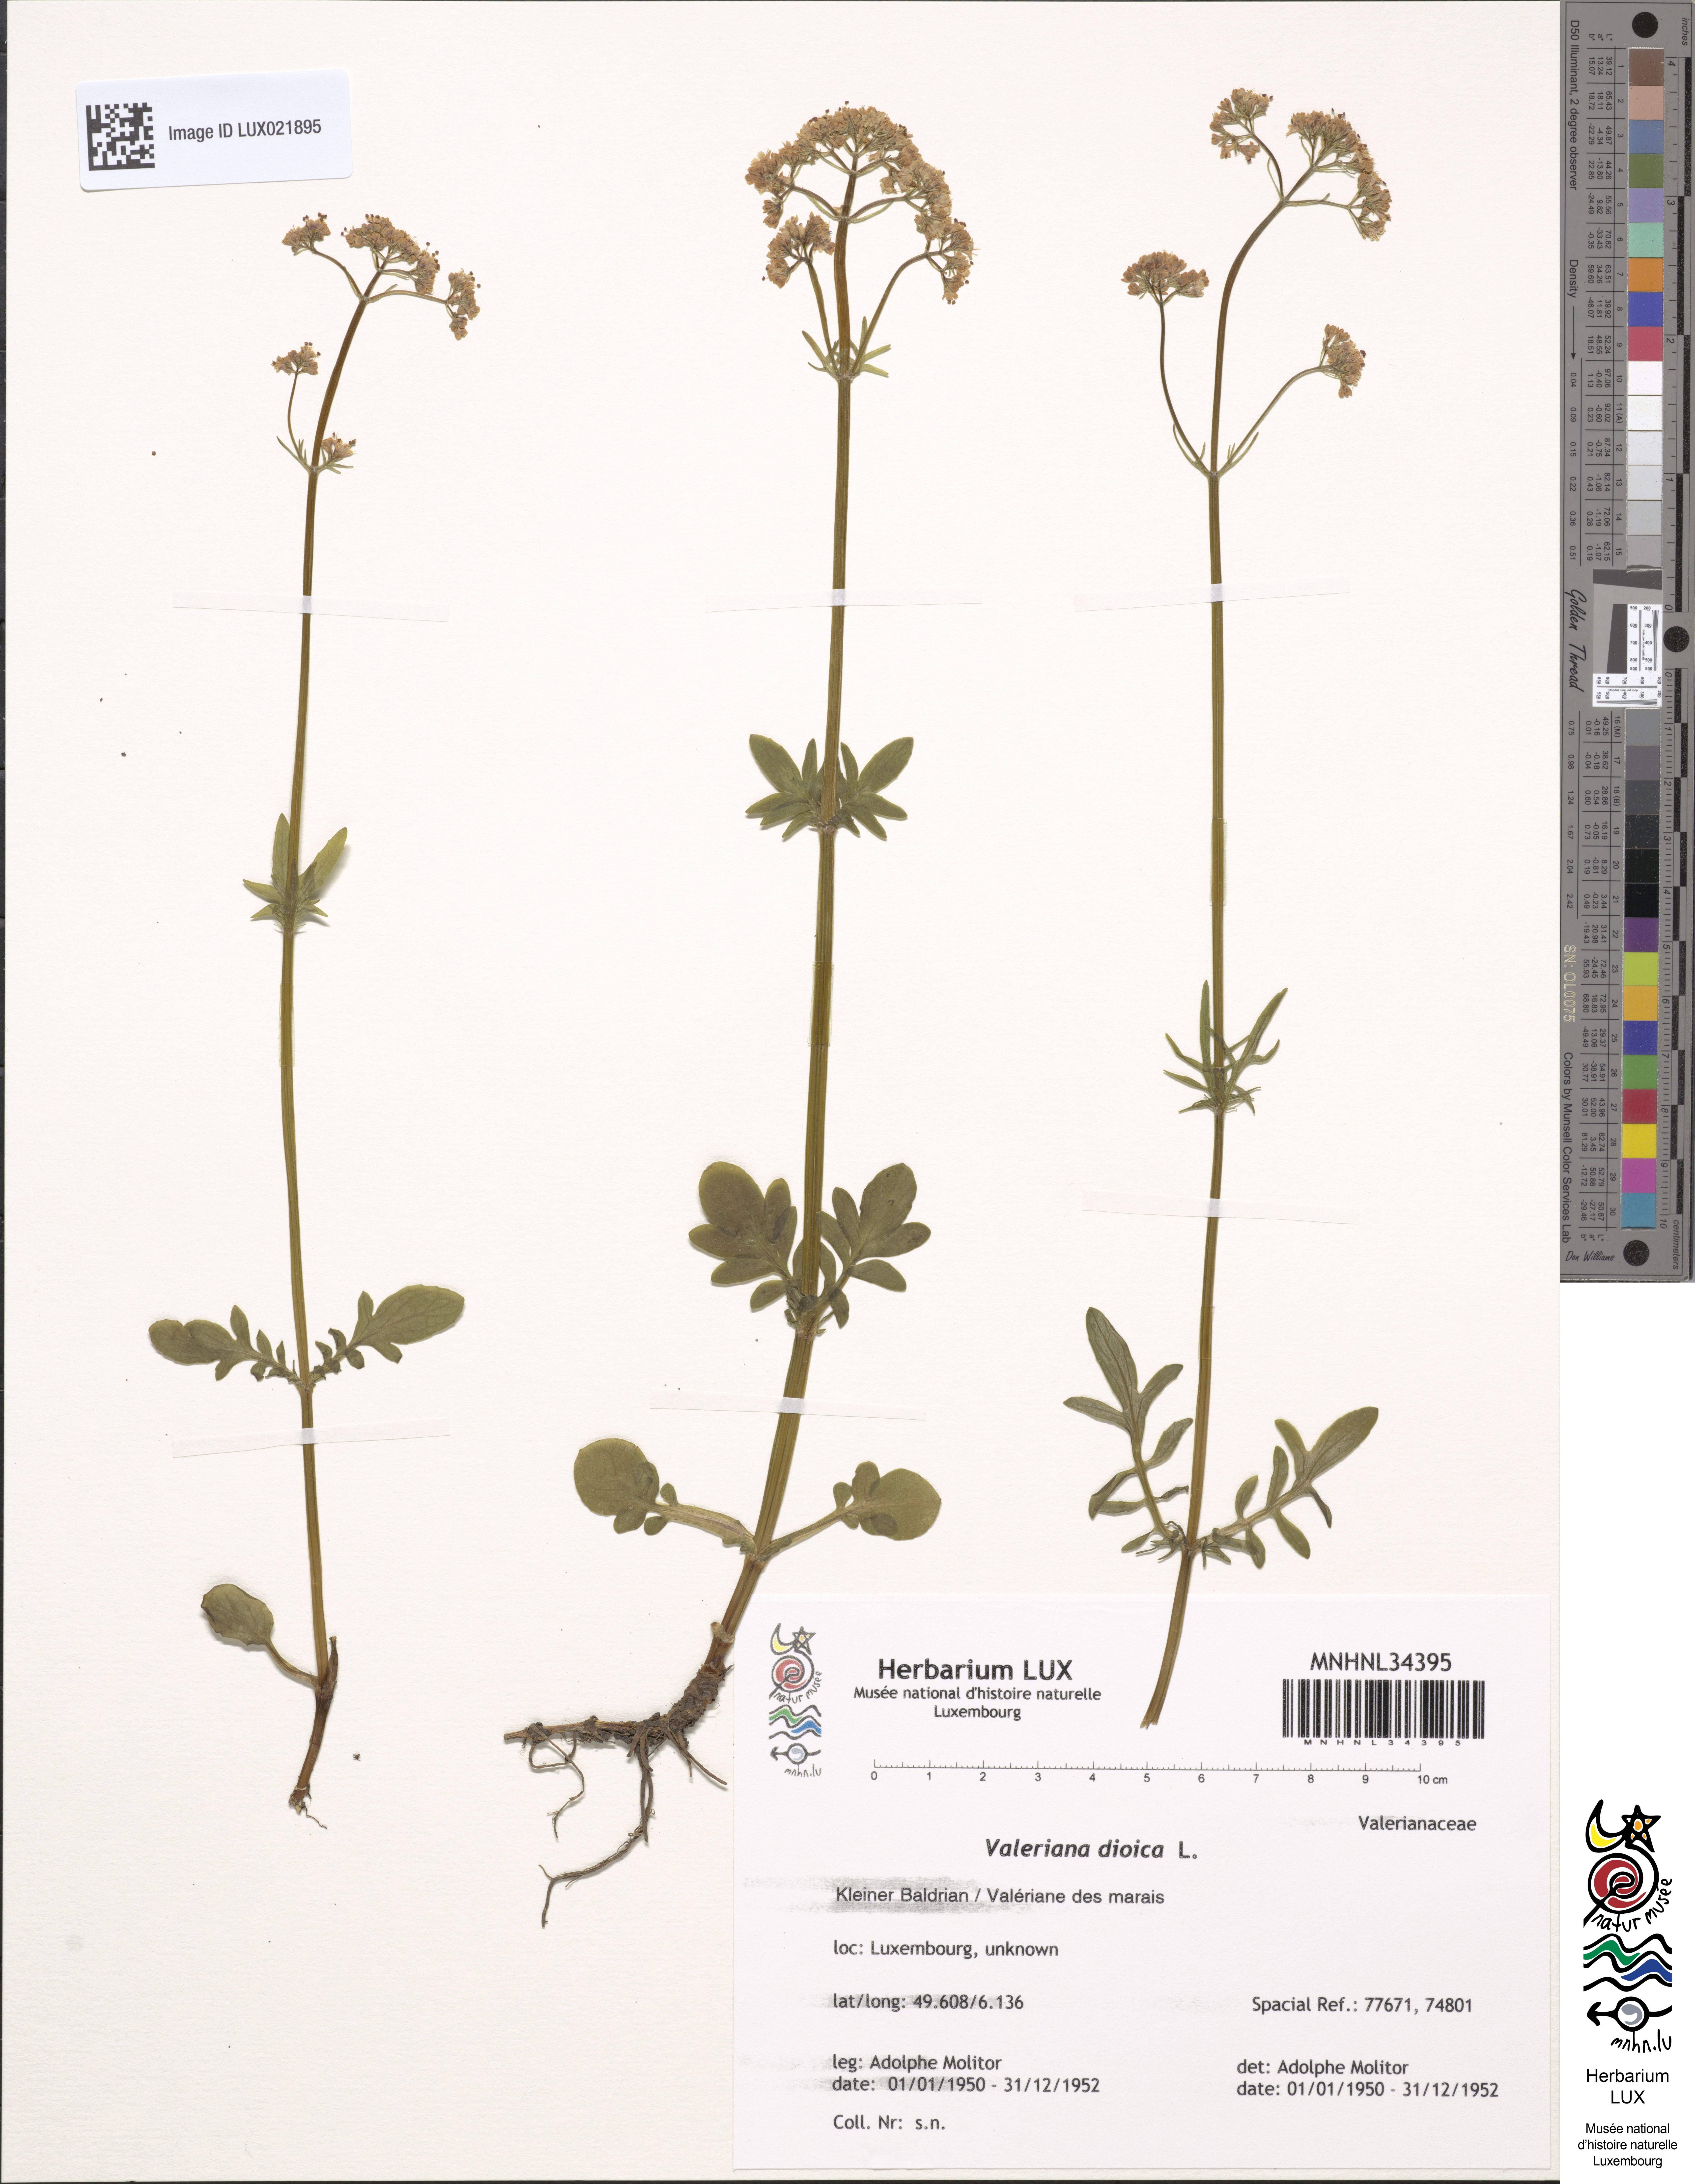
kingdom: Plantae
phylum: Tracheophyta
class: Magnoliopsida
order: Dipsacales
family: Caprifoliaceae
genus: Valeriana
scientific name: Valeriana dioica
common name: Marsh valerian
